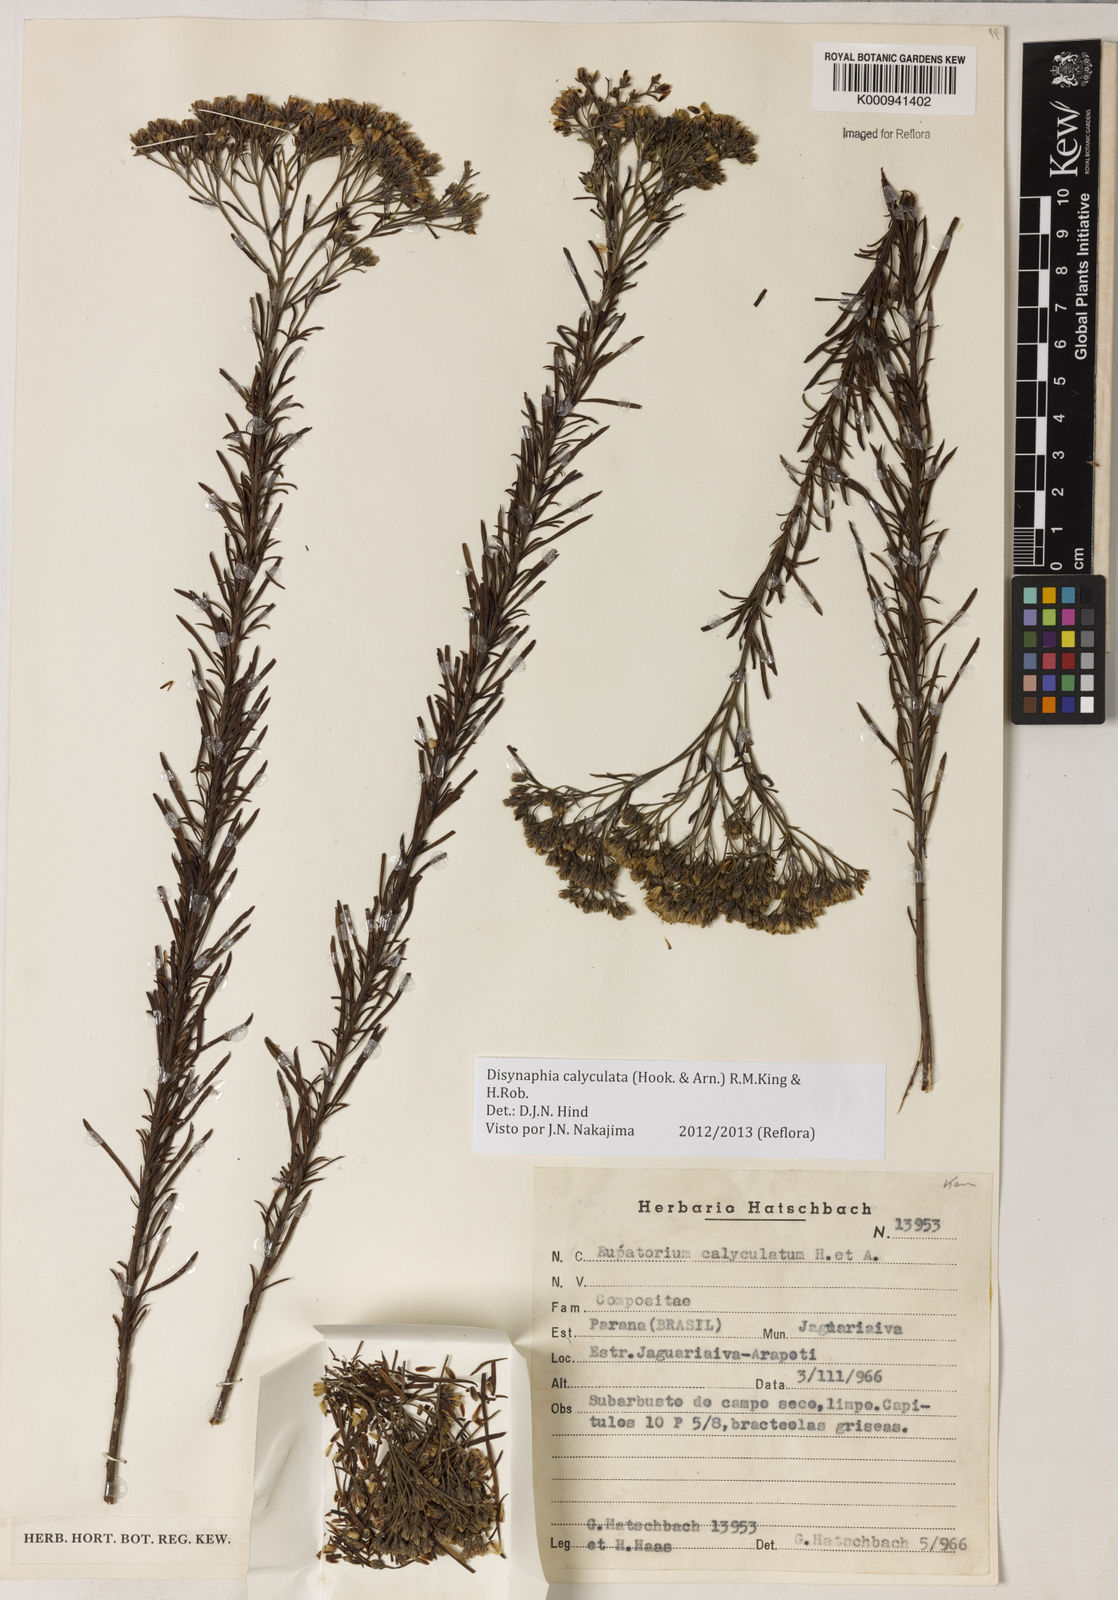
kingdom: Plantae
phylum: Tracheophyta
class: Magnoliopsida
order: Asterales
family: Asteraceae
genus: Disynaphia
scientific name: Disynaphia calyculata
